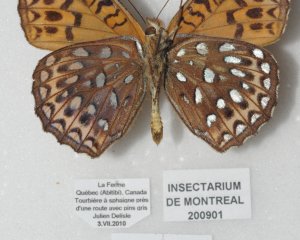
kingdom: Animalia
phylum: Arthropoda
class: Insecta
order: Lepidoptera
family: Nymphalidae
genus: Speyeria
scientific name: Speyeria atlantis
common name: Atlantis Fritillary
